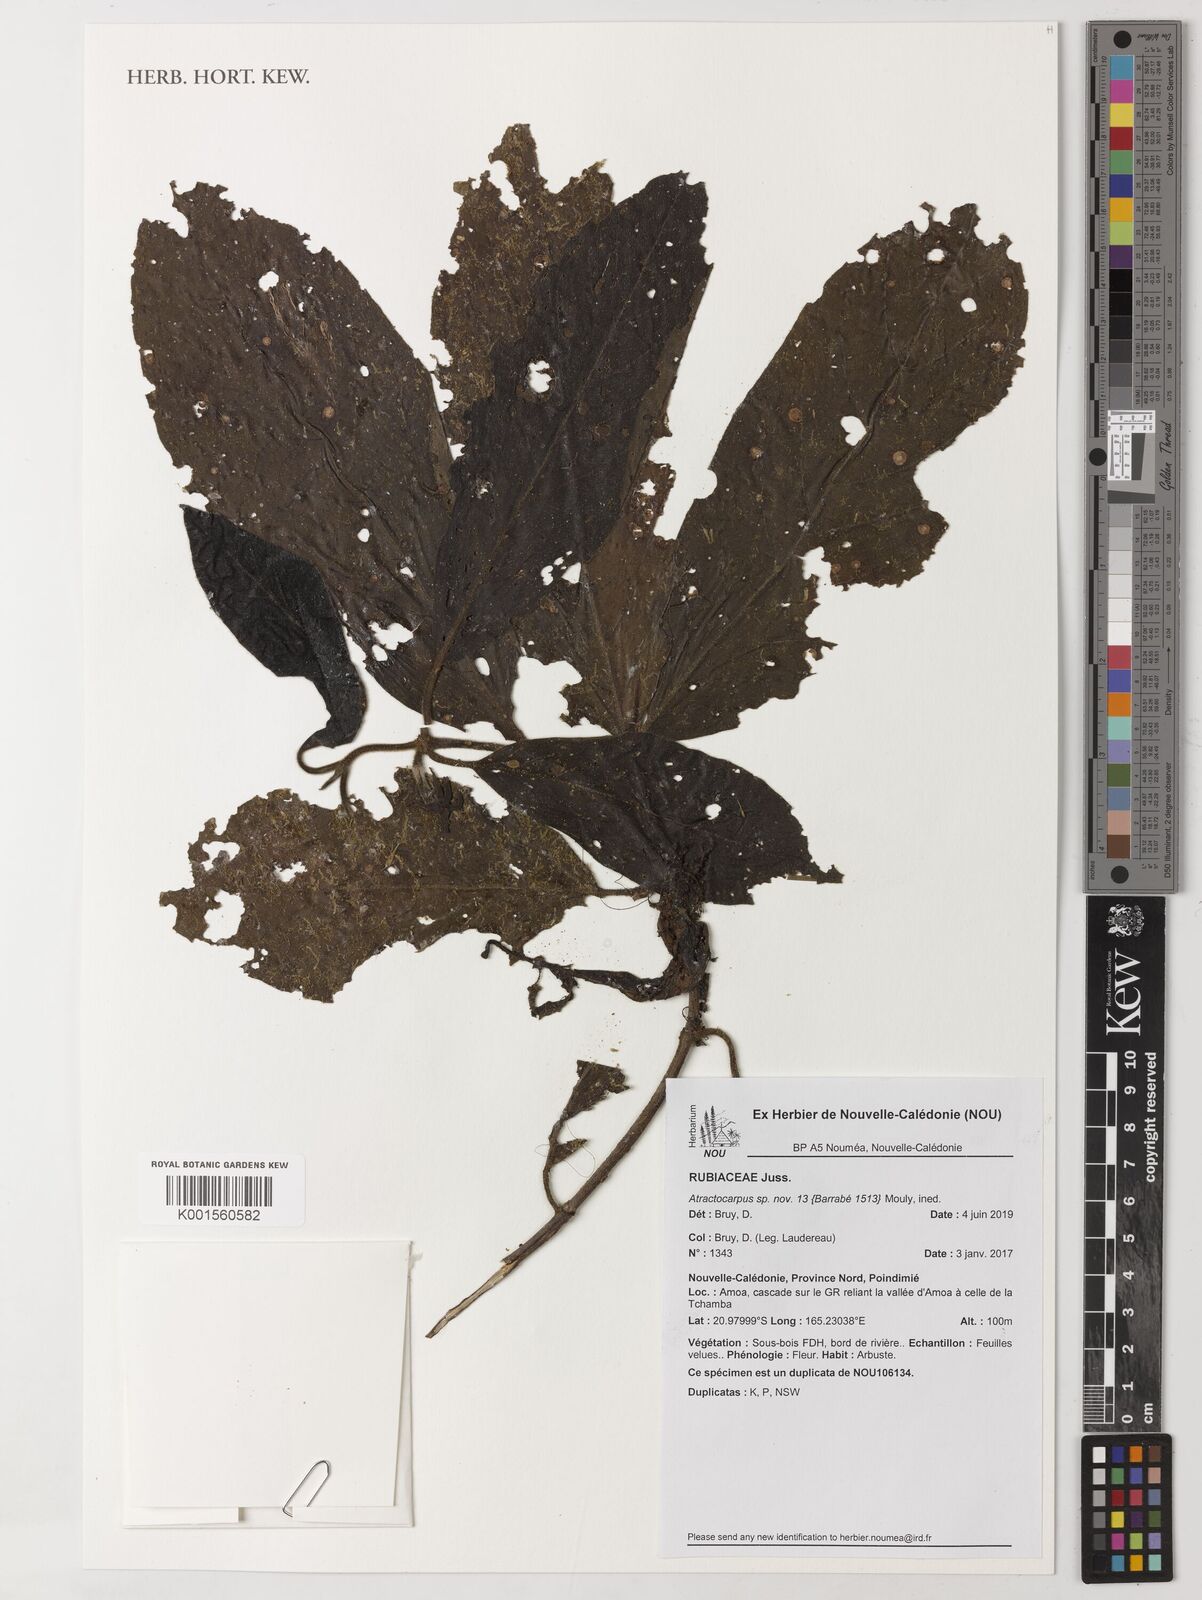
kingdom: Plantae
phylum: Tracheophyta
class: Magnoliopsida
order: Gentianales
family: Rubiaceae
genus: Atractocarpus
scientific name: Atractocarpus
